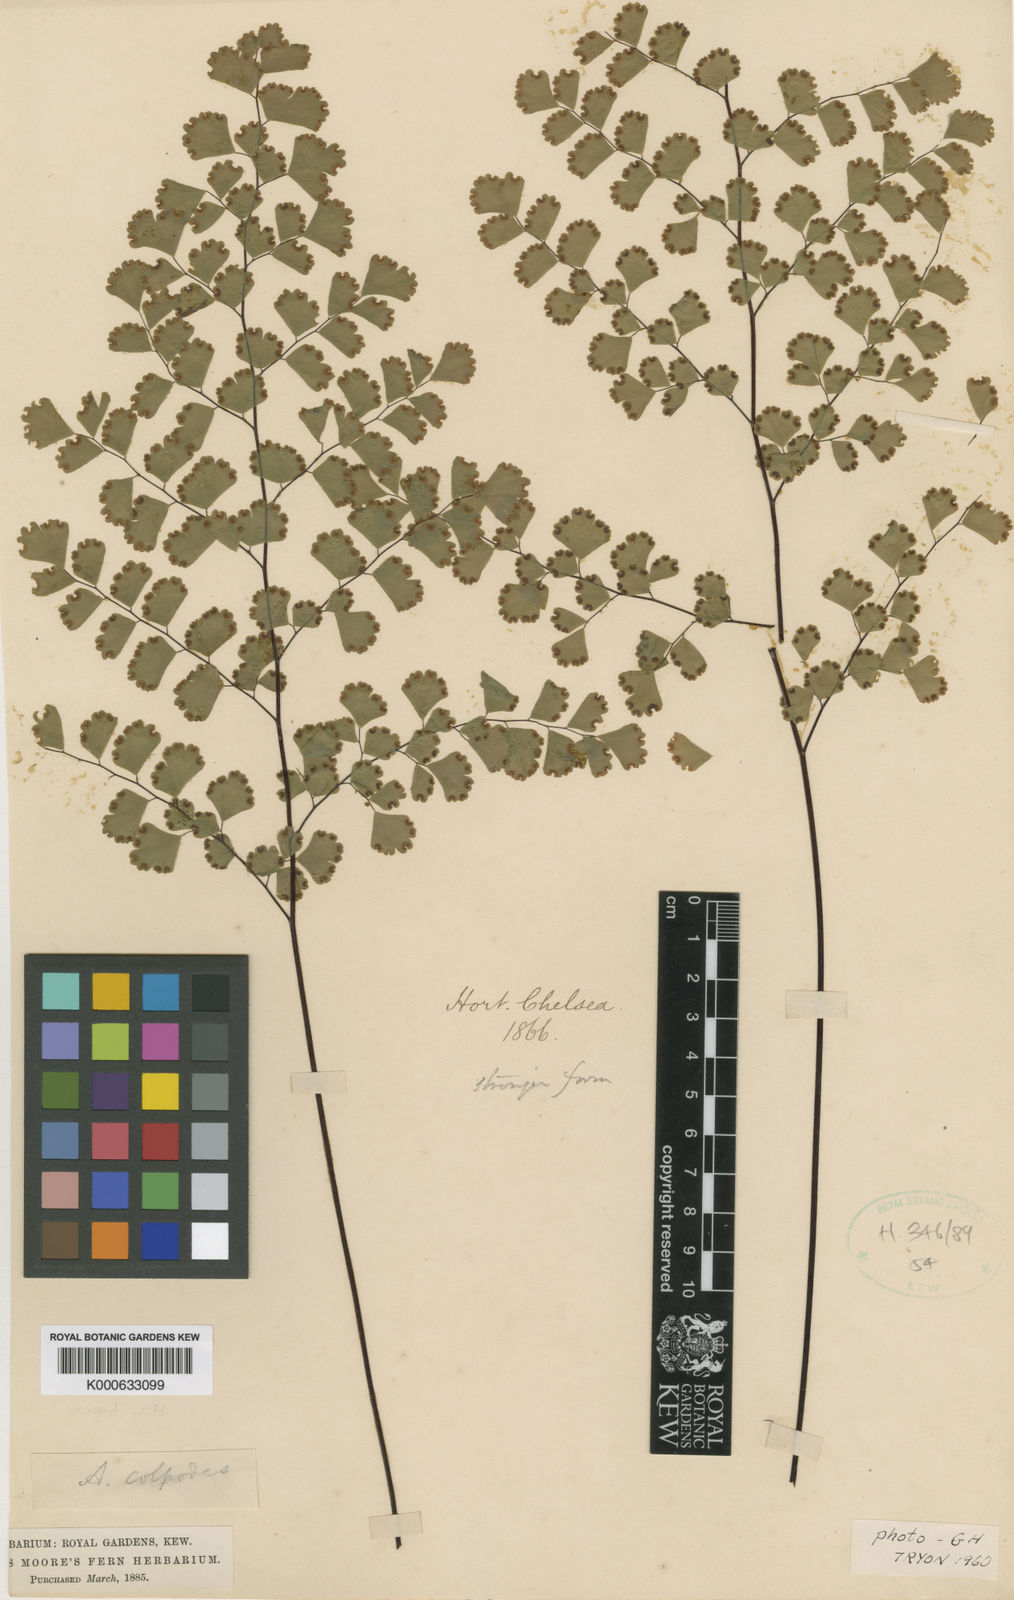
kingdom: Plantae
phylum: Tracheophyta
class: Polypodiopsida
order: Polypodiales
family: Pteridaceae
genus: Adiantum
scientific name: Adiantum raddianum
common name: Delta maidenhair fern
